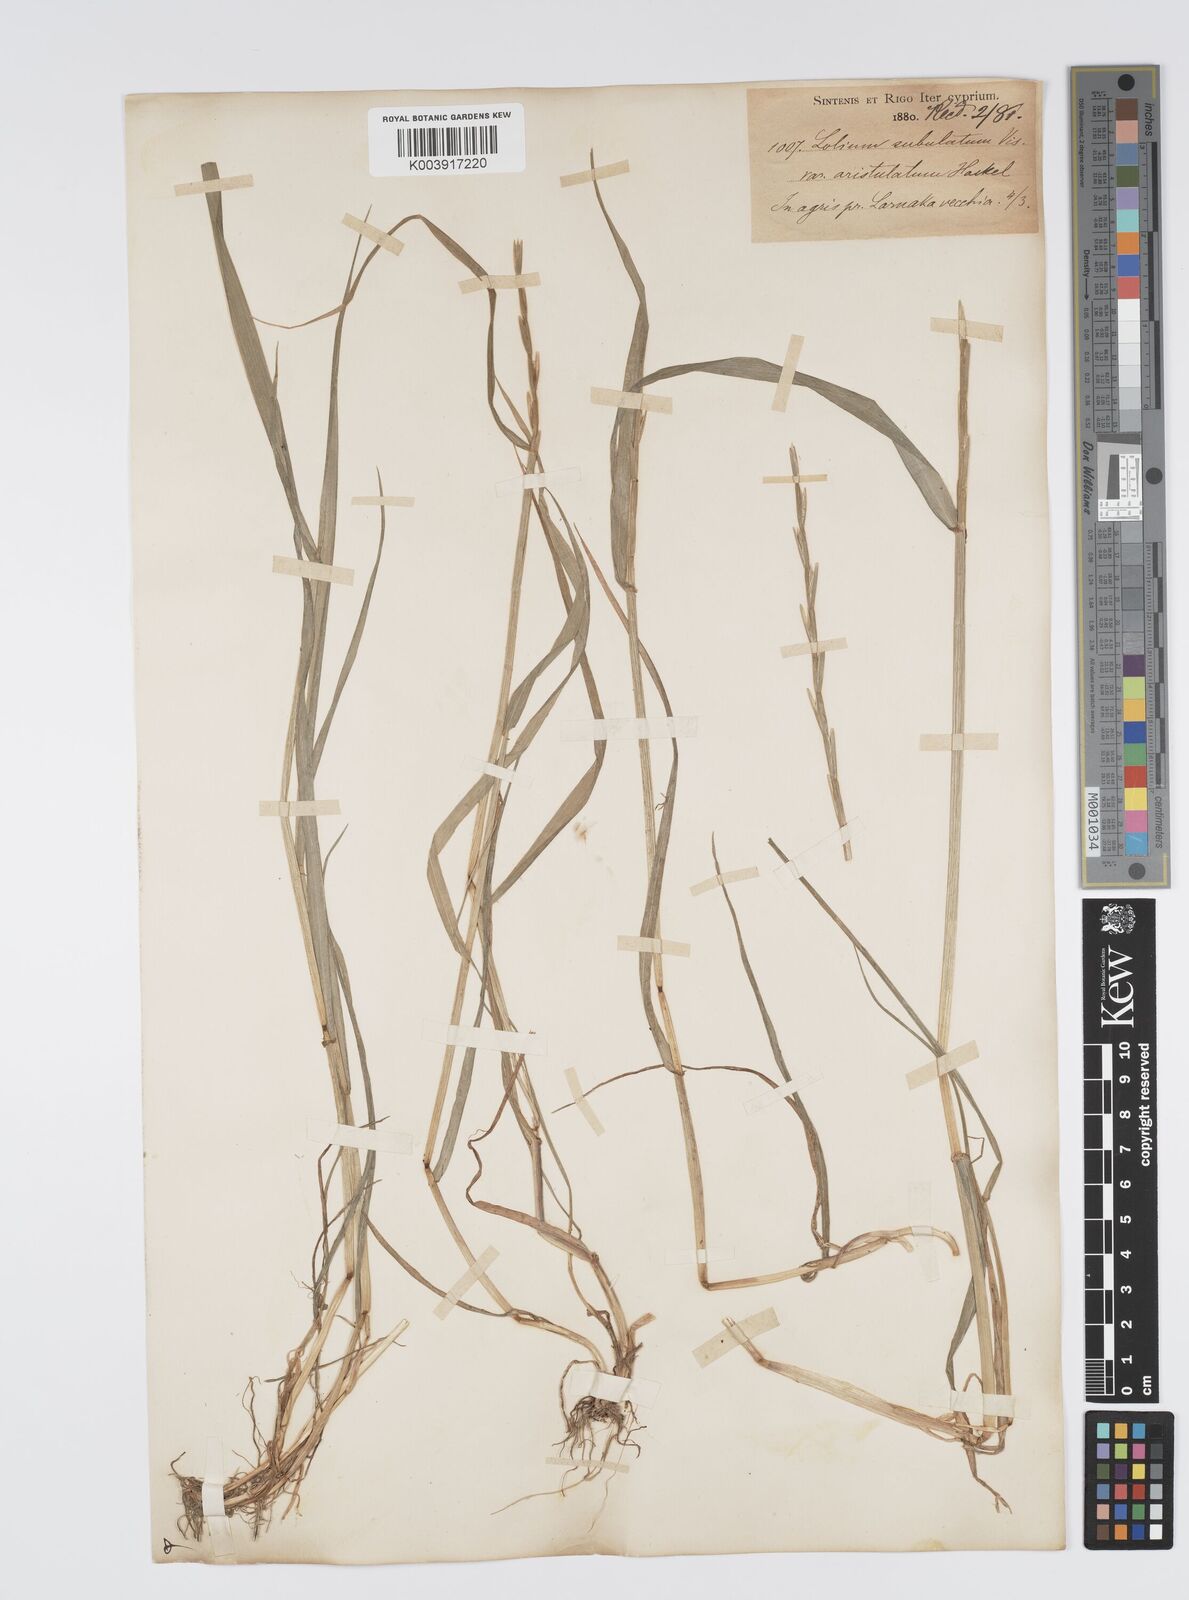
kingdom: Plantae
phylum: Tracheophyta
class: Liliopsida
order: Poales
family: Poaceae
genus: Lolium
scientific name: Lolium rigidum
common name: Wimmera ryegrass
